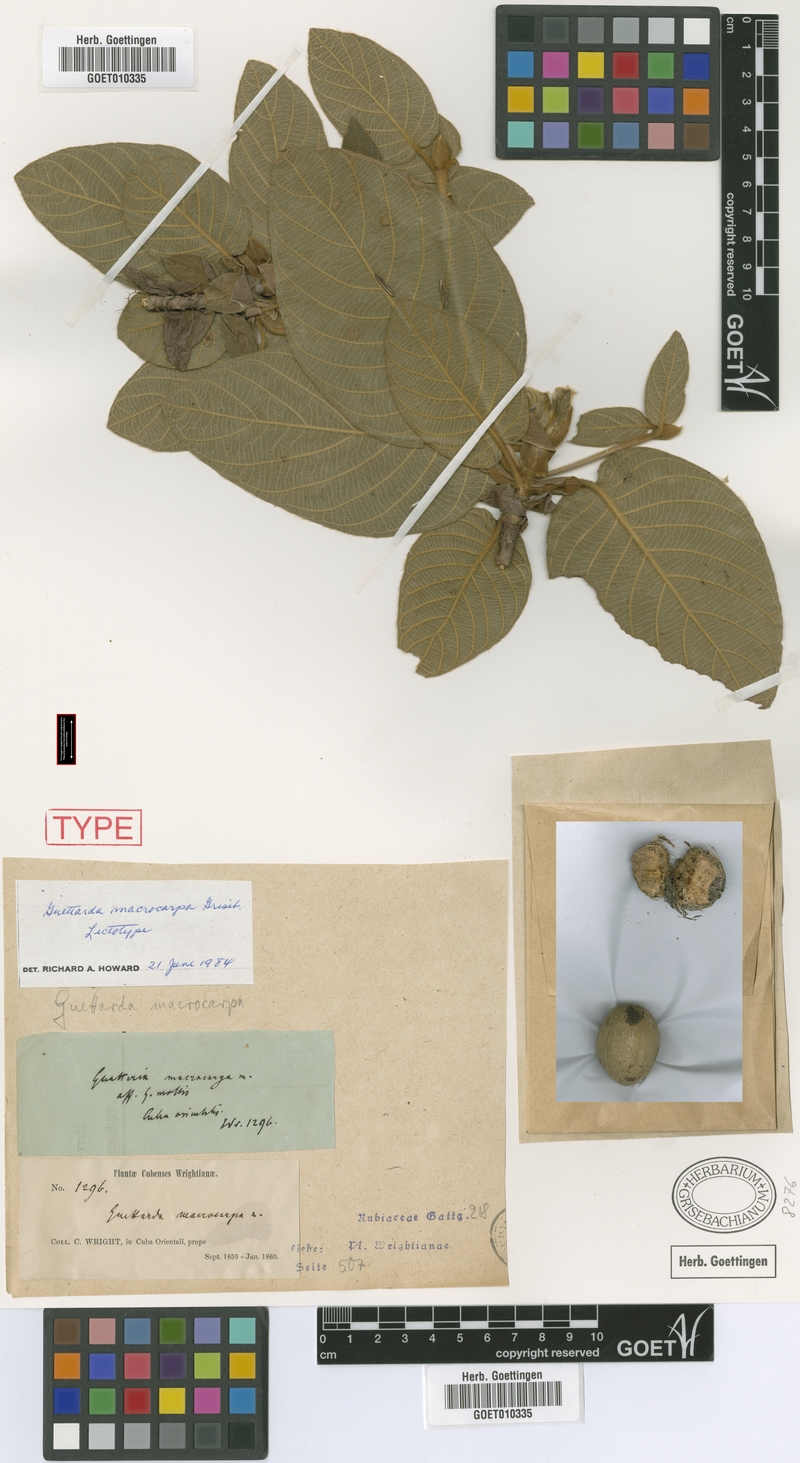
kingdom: Plantae
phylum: Tracheophyta
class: Magnoliopsida
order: Gentianales
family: Rubiaceae
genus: Guettarda
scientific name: Guettarda macrocarpa
